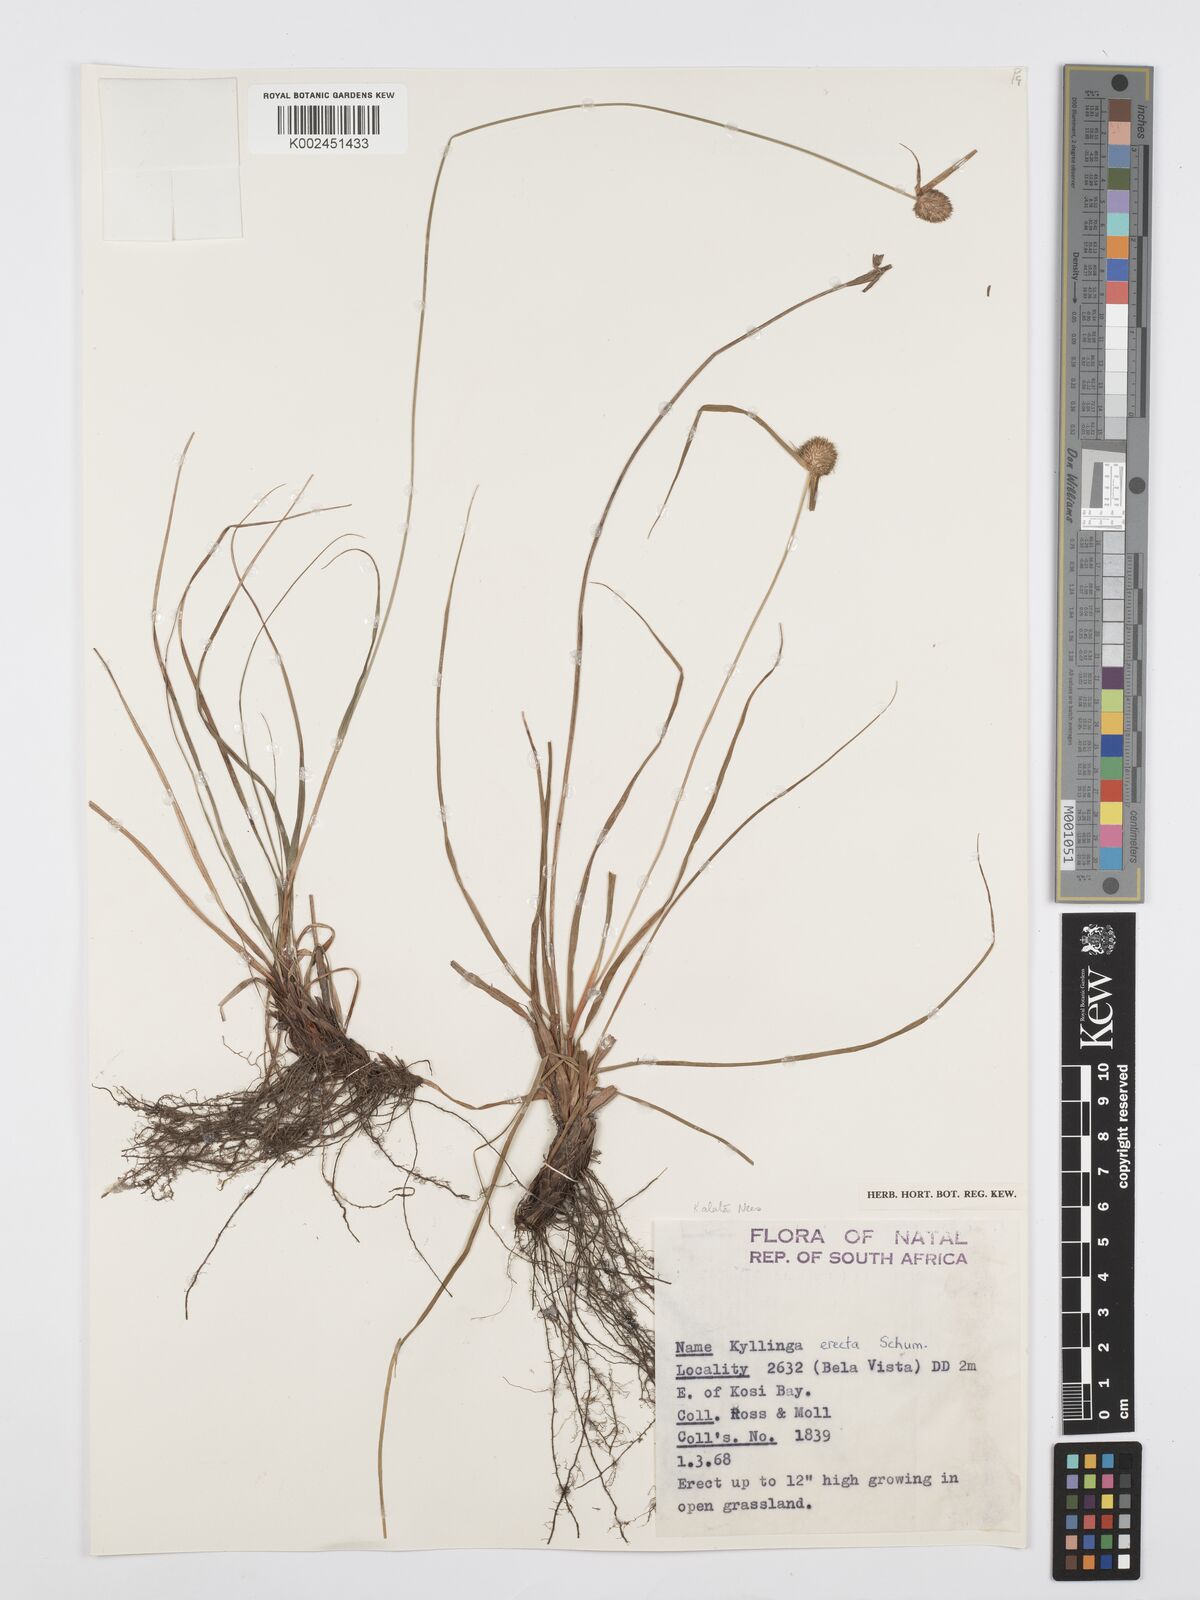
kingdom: Plantae
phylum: Tracheophyta
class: Liliopsida
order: Poales
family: Cyperaceae
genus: Cyperus
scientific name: Cyperus alatus
